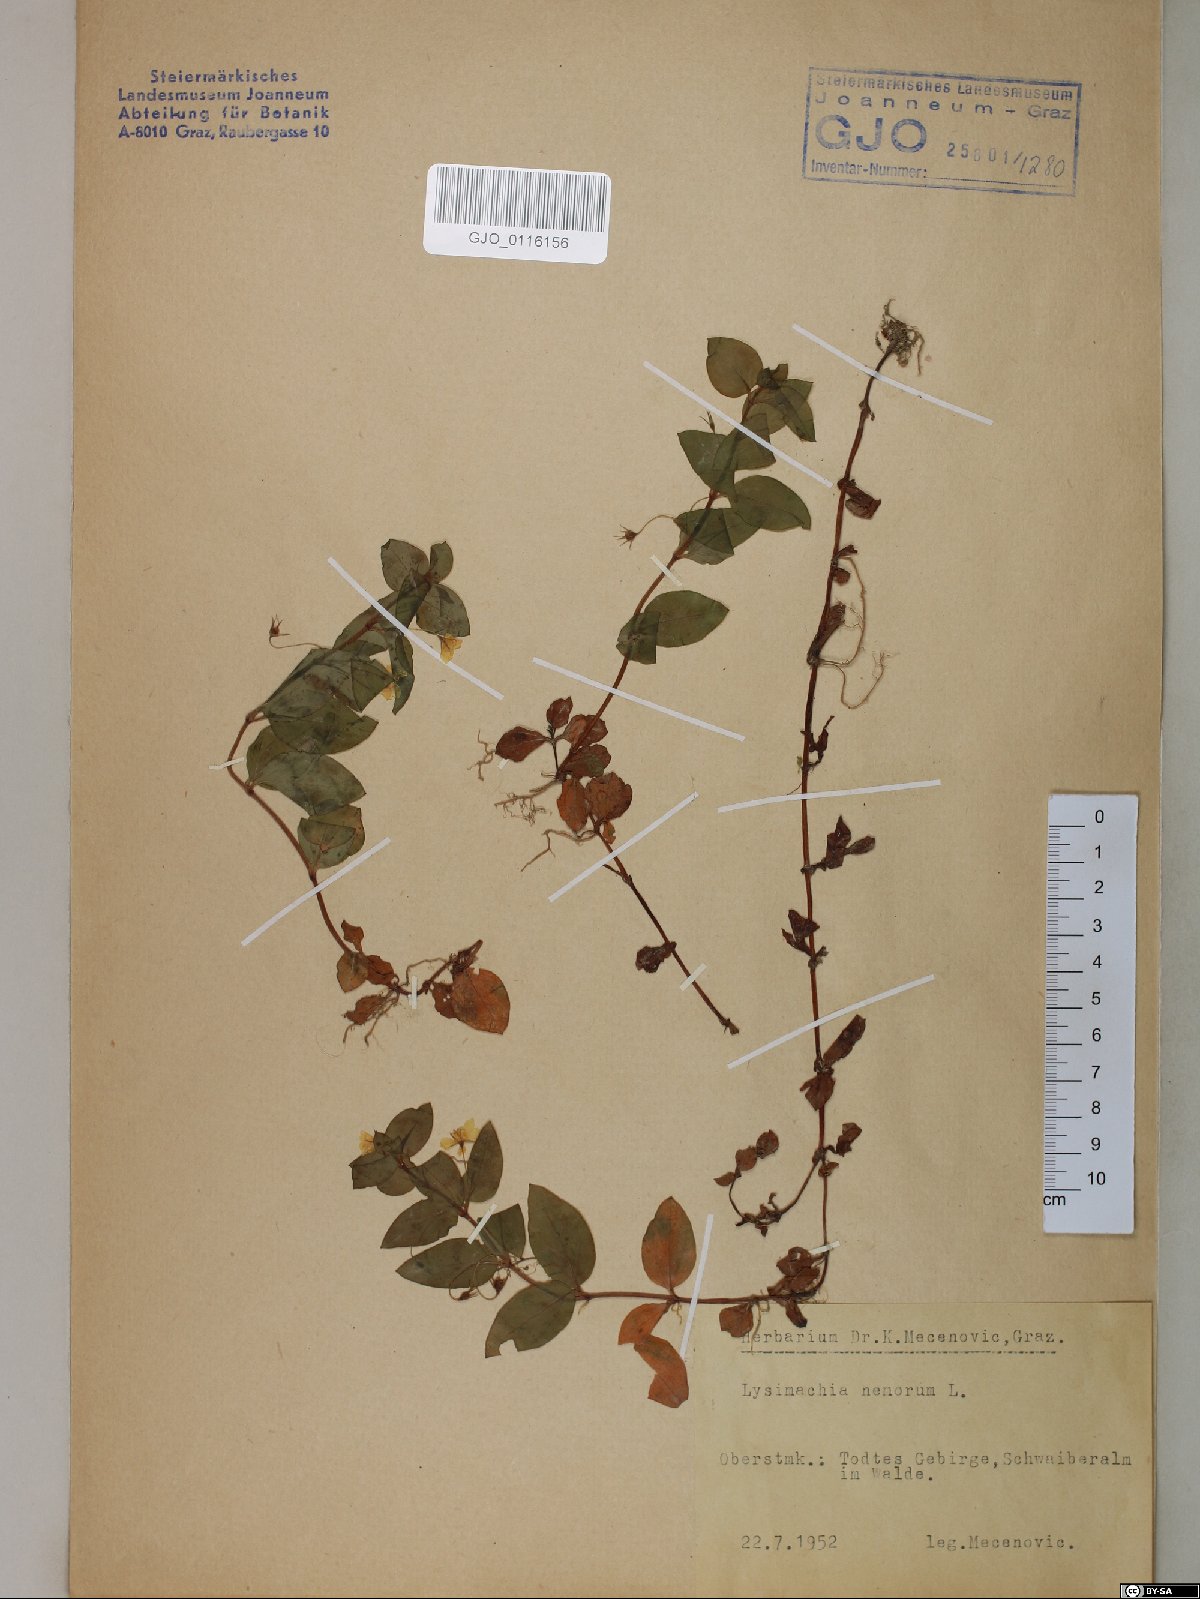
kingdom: Plantae
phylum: Tracheophyta
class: Magnoliopsida
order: Ericales
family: Primulaceae
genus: Lysimachia
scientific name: Lysimachia nemorum
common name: Yellow pimpernel
